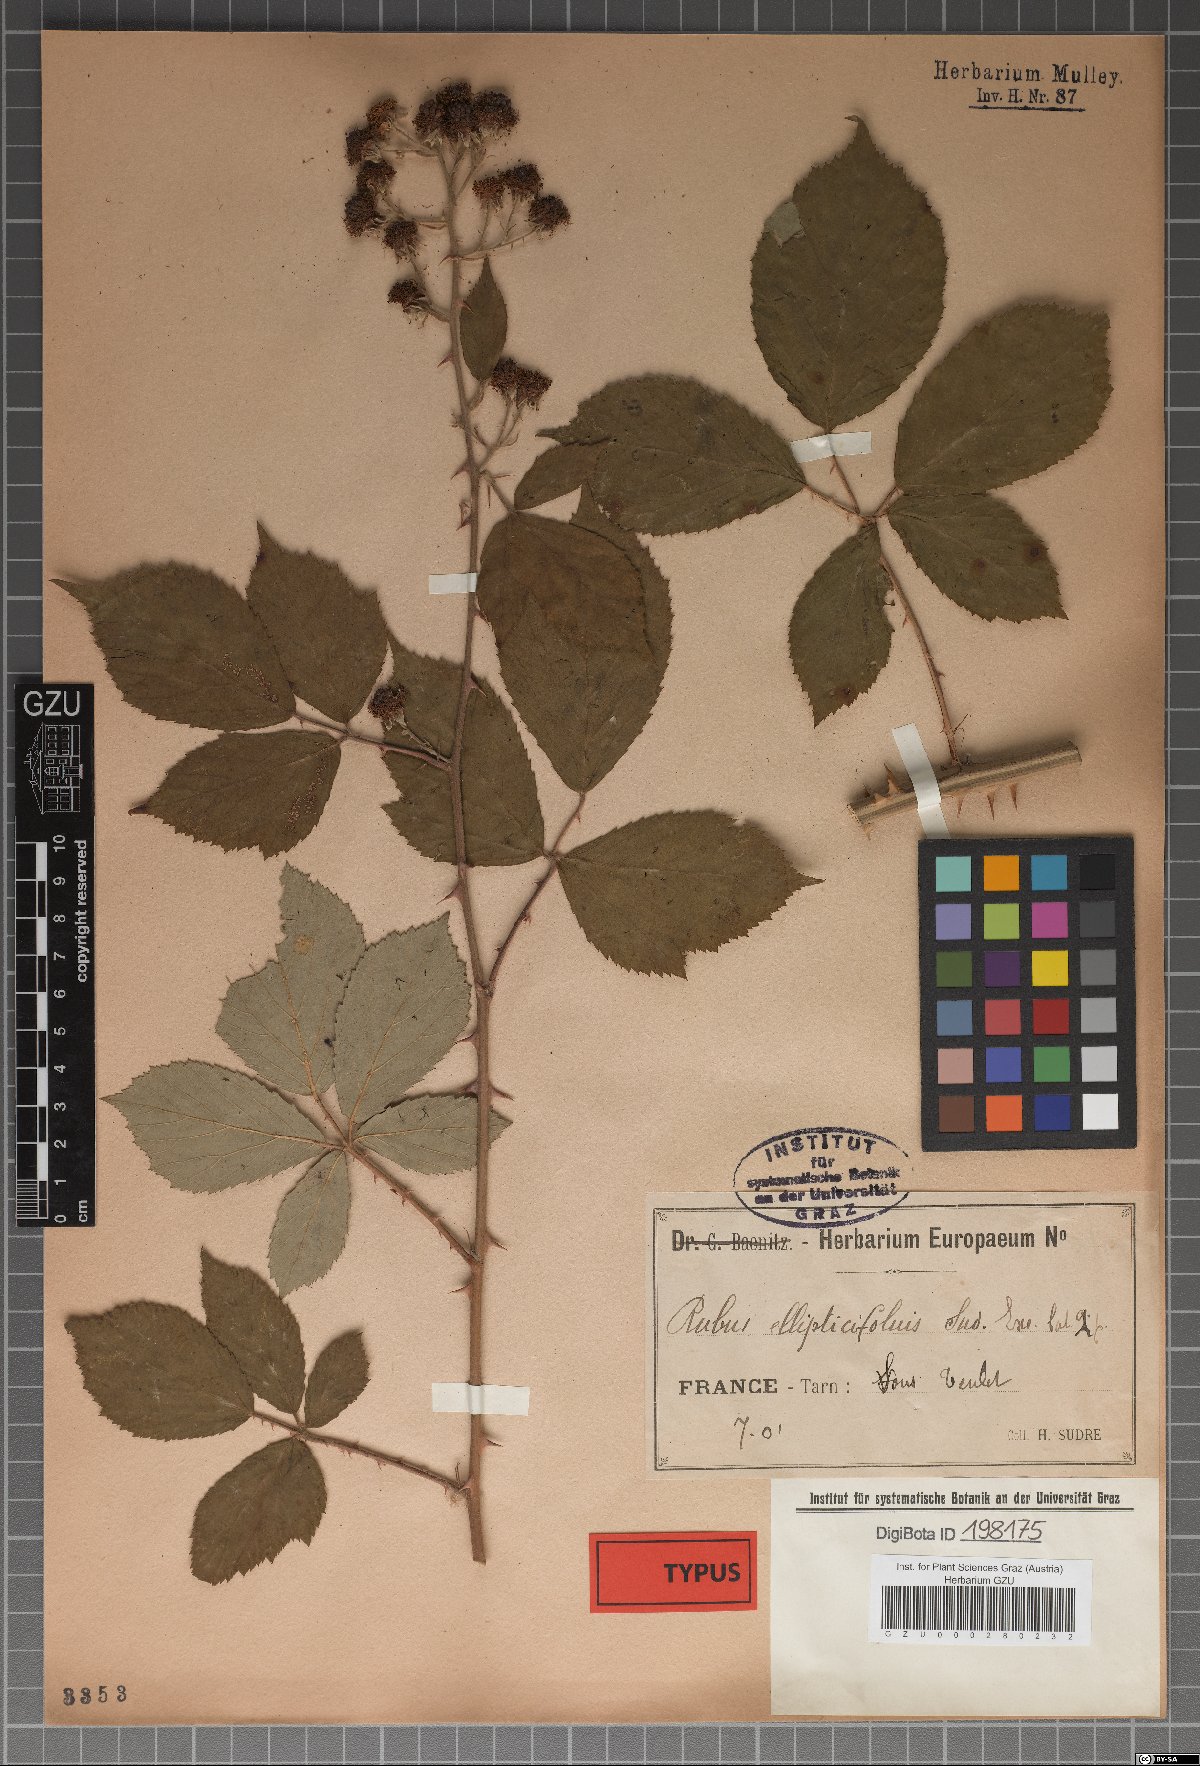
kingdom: Plantae
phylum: Tracheophyta
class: Magnoliopsida
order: Rosales
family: Rosaceae
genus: Rubus
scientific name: Rubus godronii
